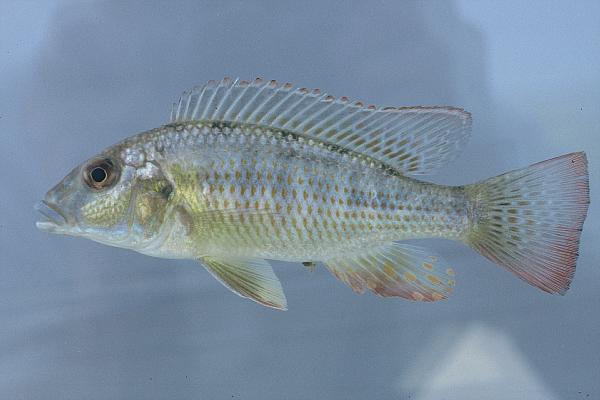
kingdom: Animalia
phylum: Chordata
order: Perciformes
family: Cichlidae
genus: Thoracochromis
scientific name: Thoracochromis buysi
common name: Namib happy
